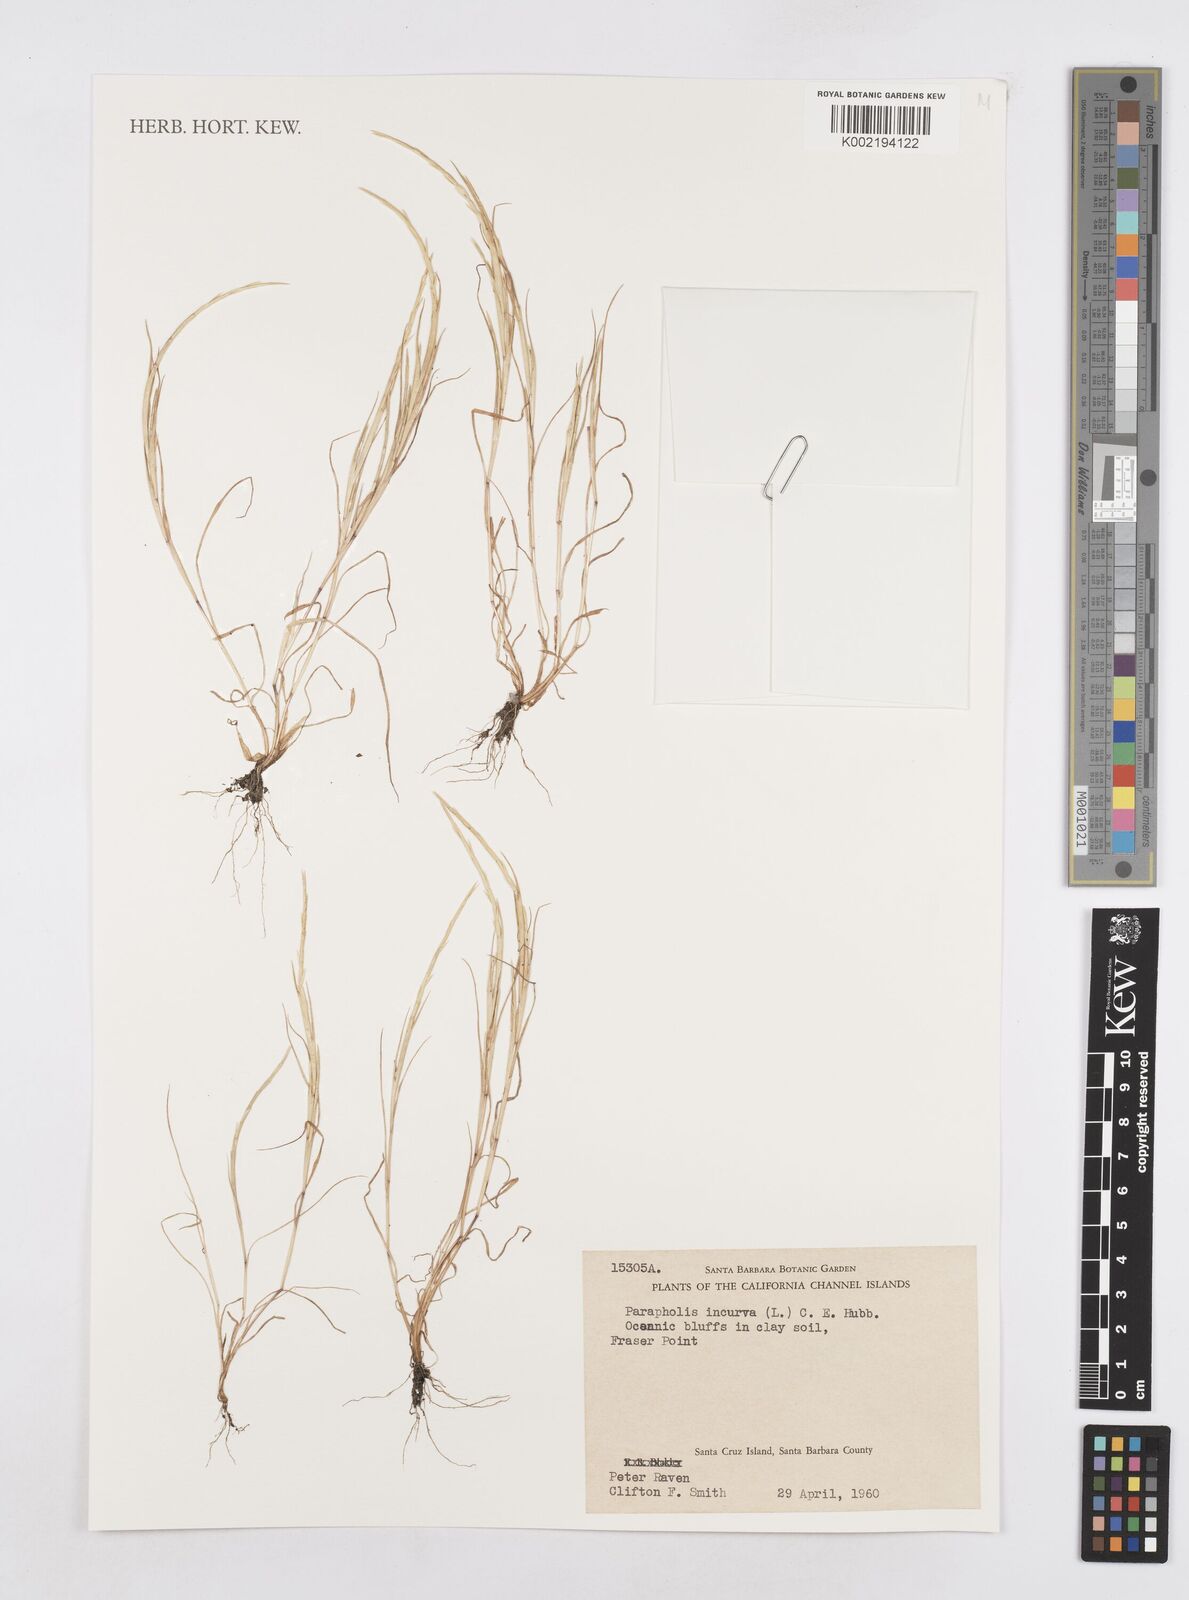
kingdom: Plantae
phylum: Tracheophyta
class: Liliopsida
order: Poales
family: Poaceae
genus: Parapholis
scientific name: Parapholis incurva
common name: Curved sicklegrass
